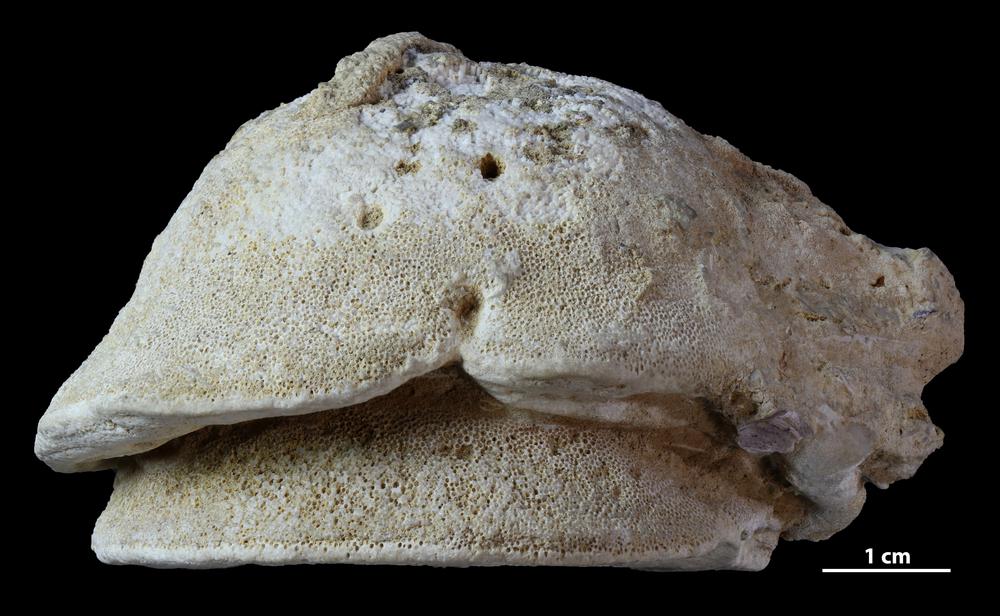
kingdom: Animalia
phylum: Bryozoa
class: Stenolaemata
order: Trepostomatida
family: Diplotrypidae
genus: Diplotrypa
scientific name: Diplotrypa
